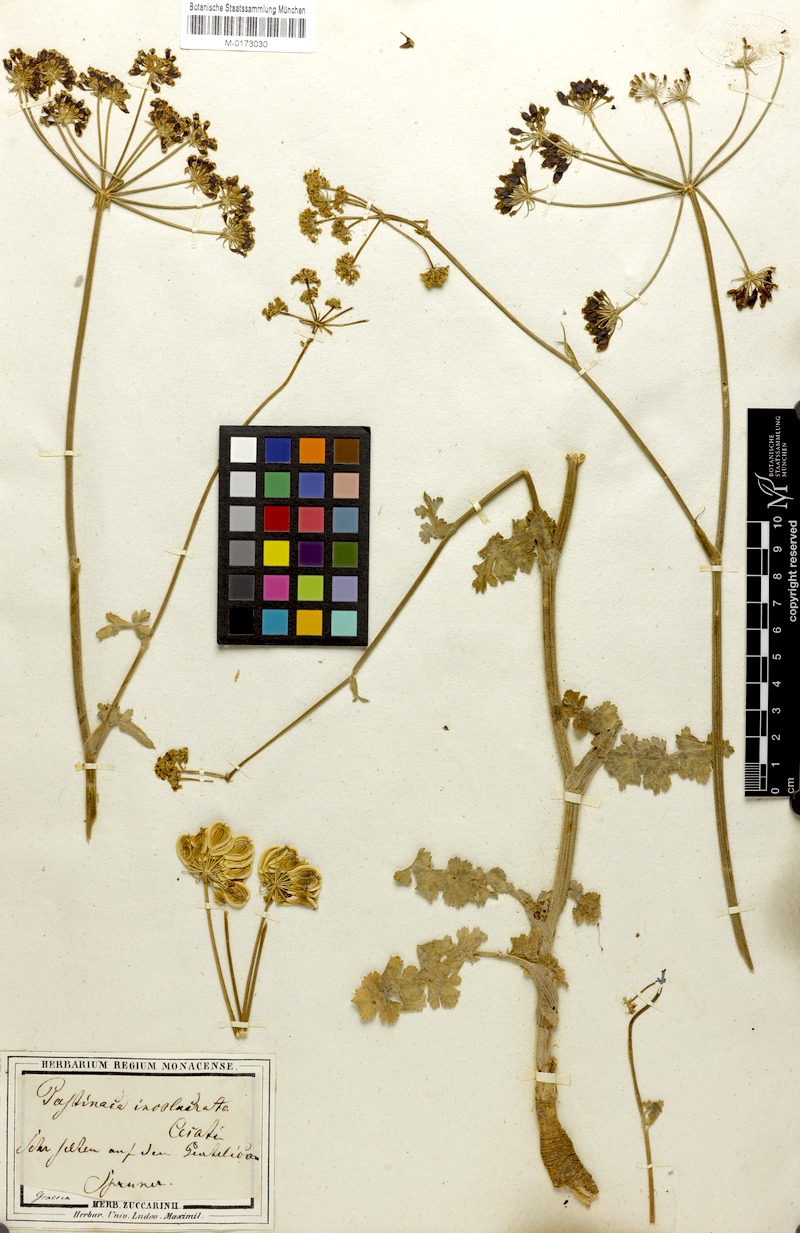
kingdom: Plantae
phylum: Tracheophyta
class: Magnoliopsida
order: Apiales
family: Apiaceae
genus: Leiotulus
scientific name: Leiotulus involucratus
